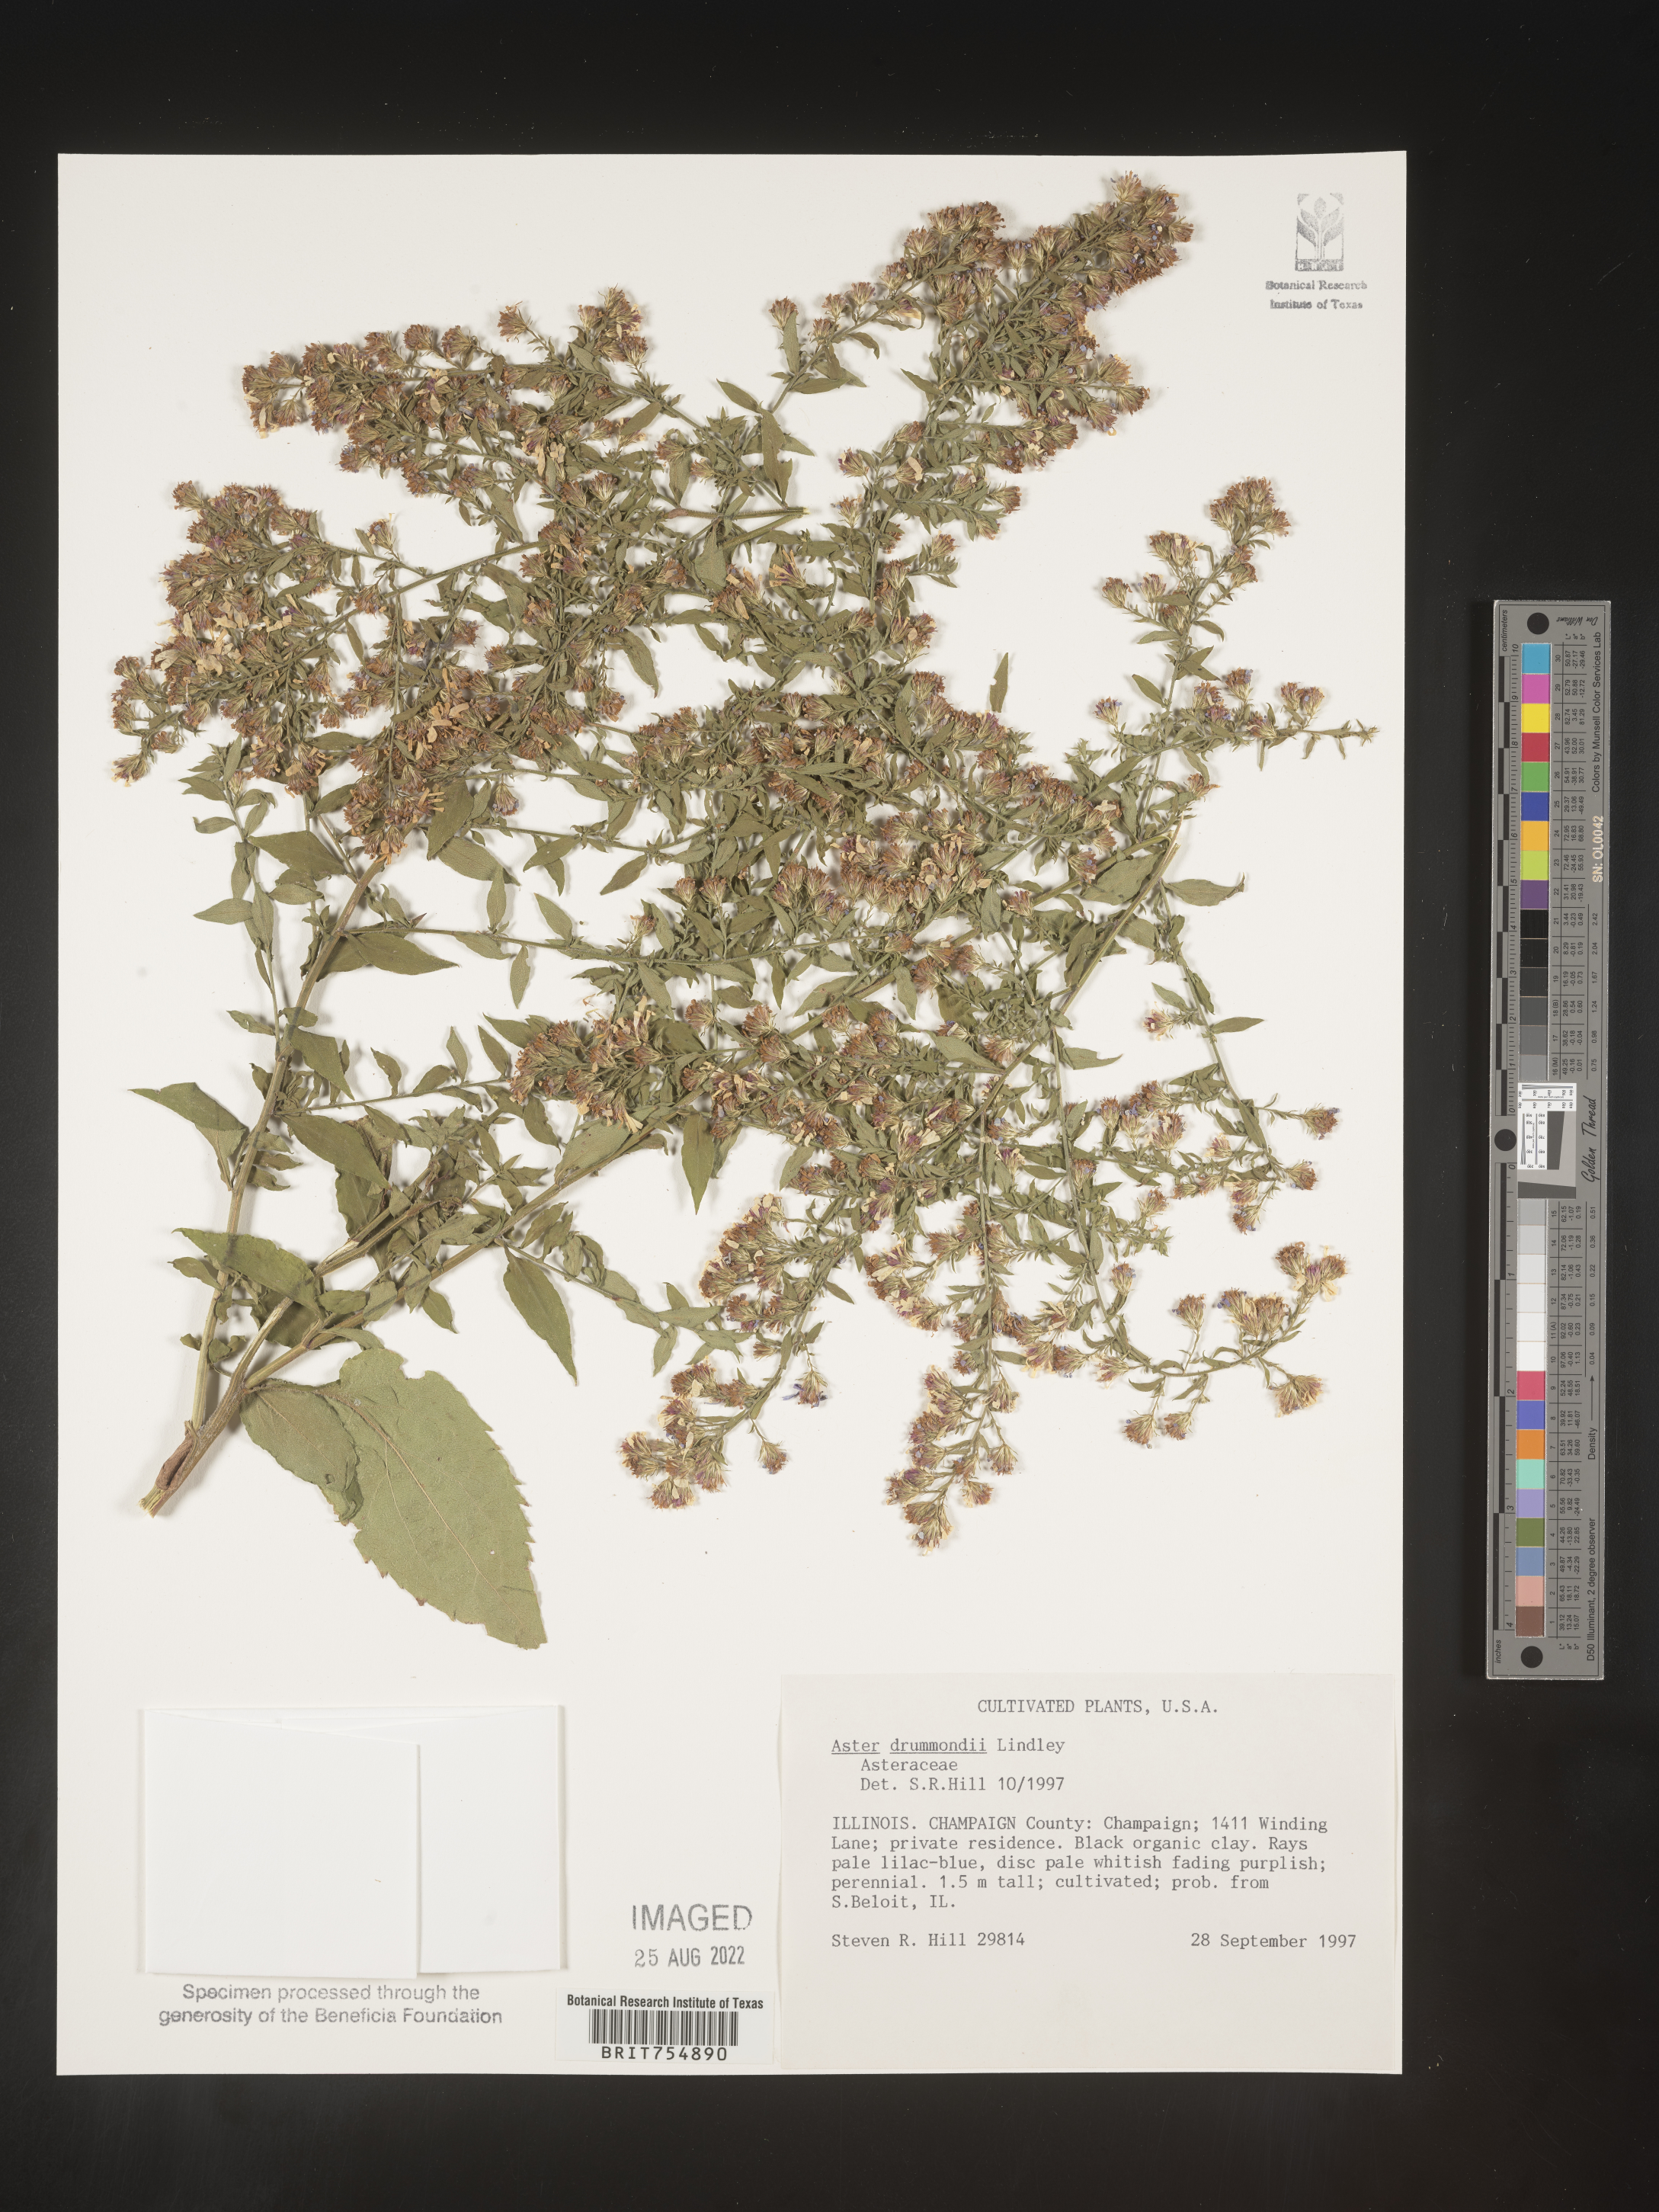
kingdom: Plantae
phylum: Tracheophyta
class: Magnoliopsida
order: Asterales
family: Asteraceae
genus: Symphyotrichum
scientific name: Symphyotrichum
